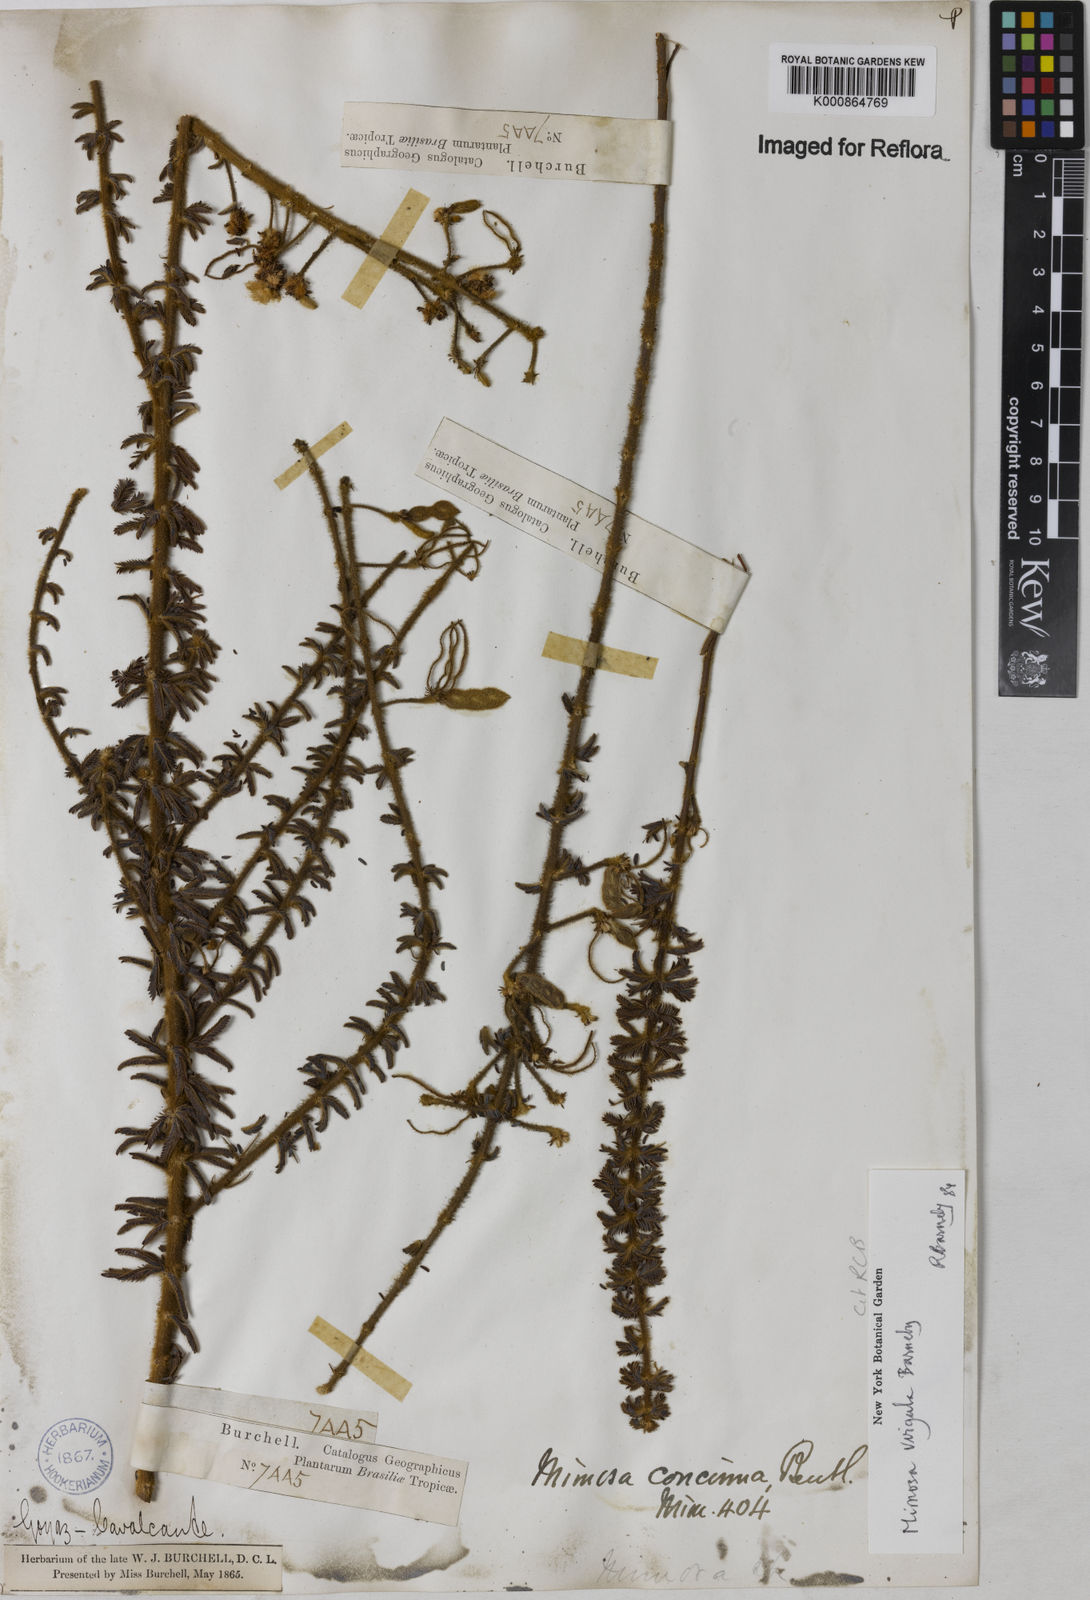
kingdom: Plantae
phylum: Tracheophyta
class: Magnoliopsida
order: Fabales
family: Fabaceae
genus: Mimosa
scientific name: Mimosa
